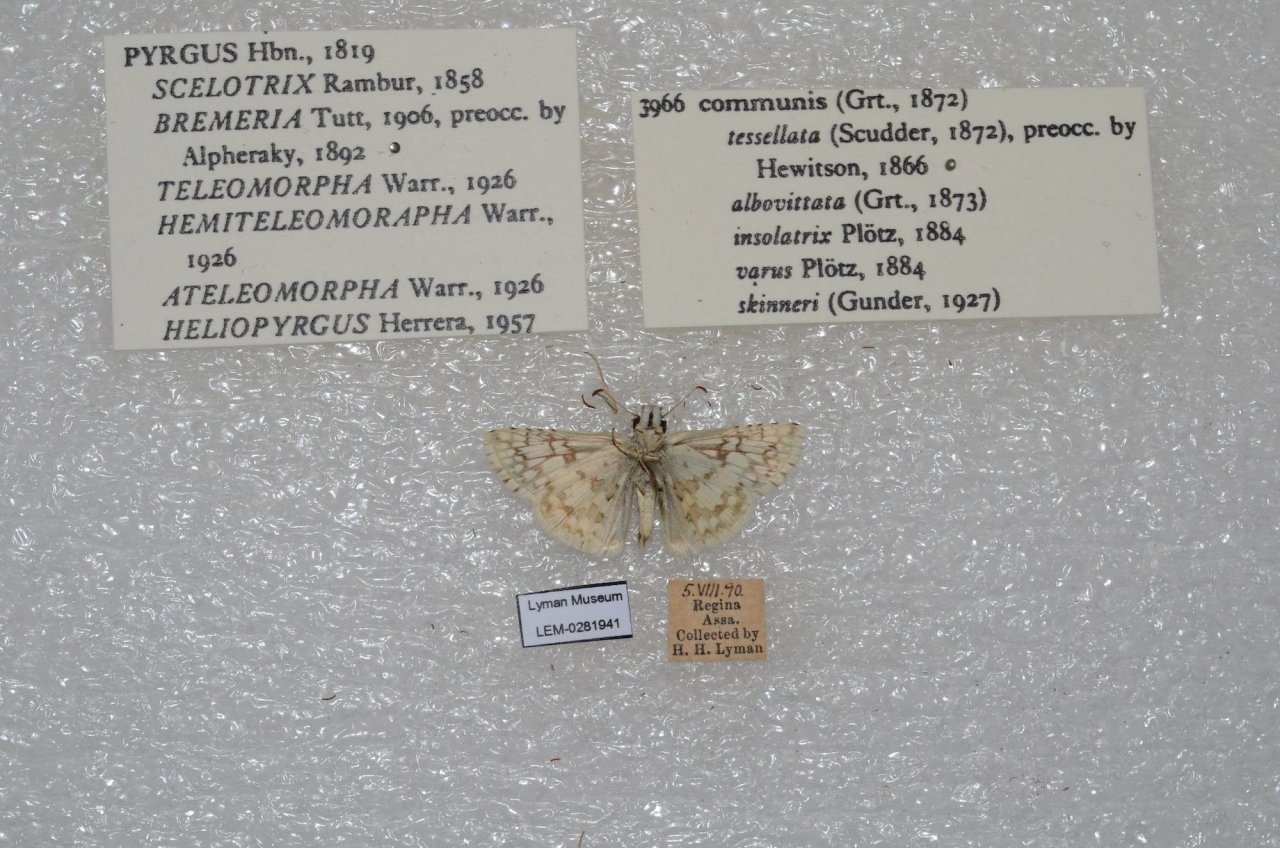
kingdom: Animalia
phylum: Arthropoda
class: Insecta
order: Lepidoptera
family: Hesperiidae
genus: Pyrgus
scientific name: Pyrgus communis
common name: Common Checkered-Skipper
